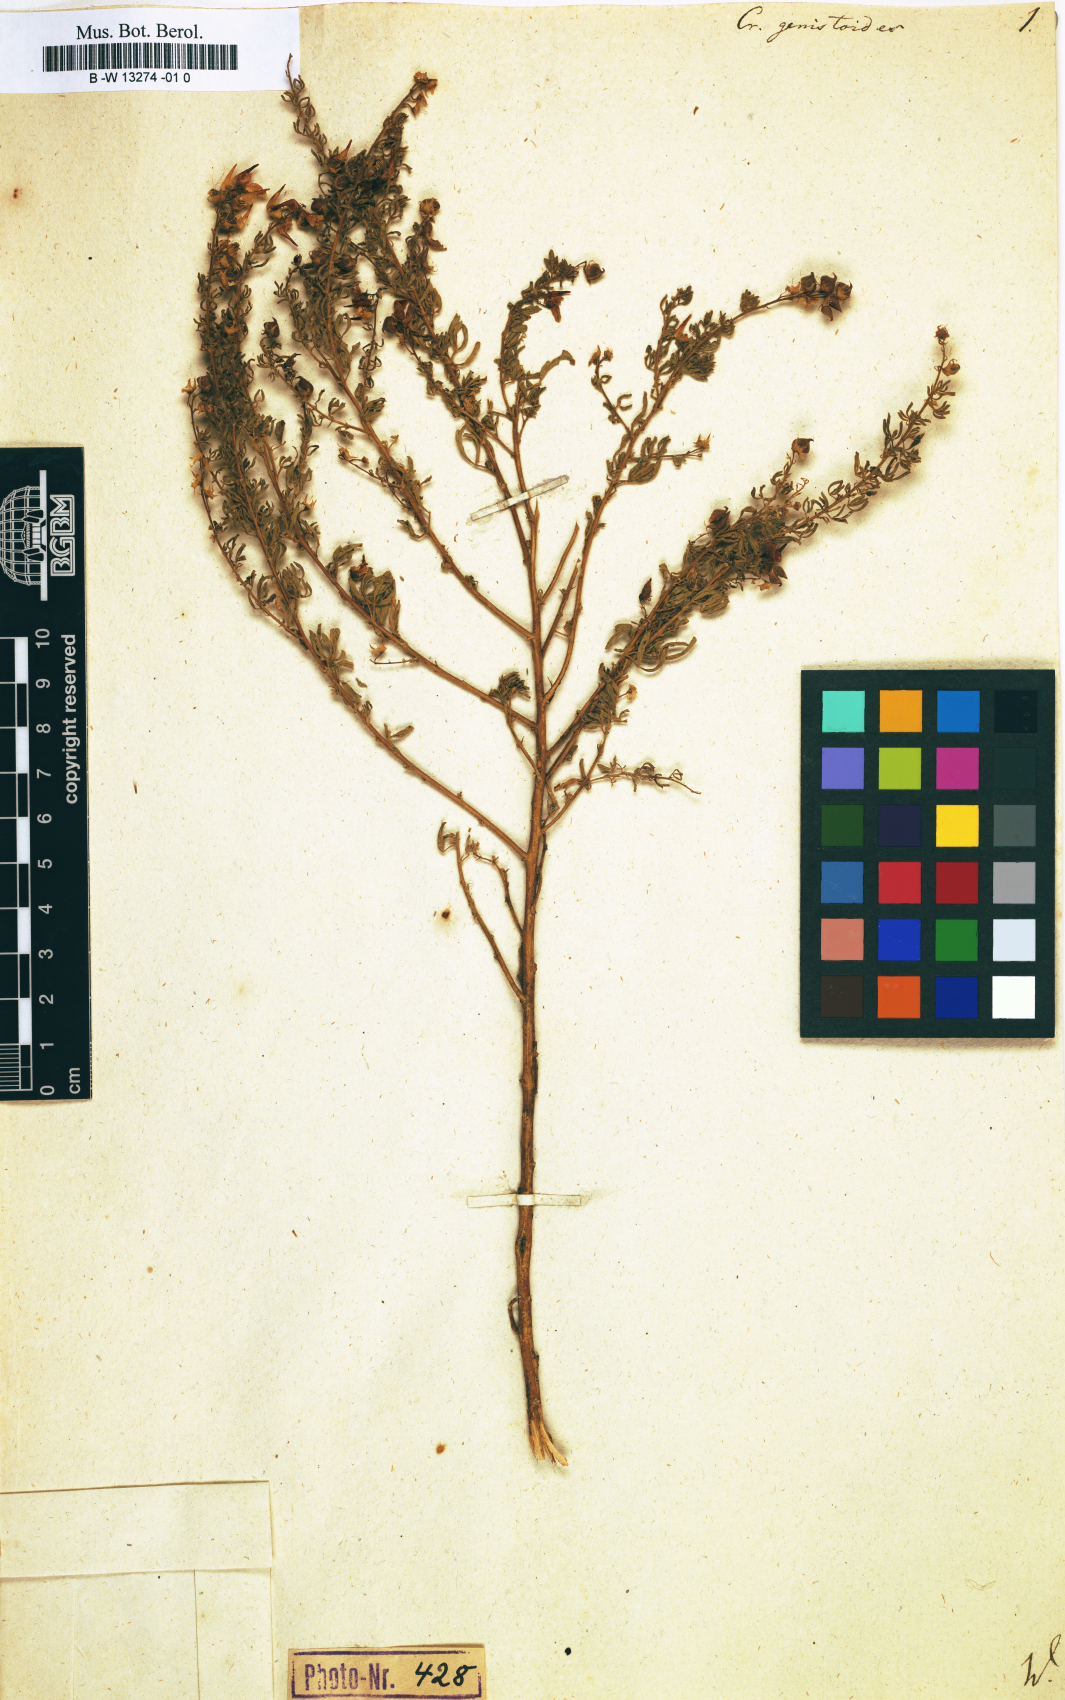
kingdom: Plantae
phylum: Tracheophyta
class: Magnoliopsida
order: Fabales
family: Fabaceae
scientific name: Fabaceae
